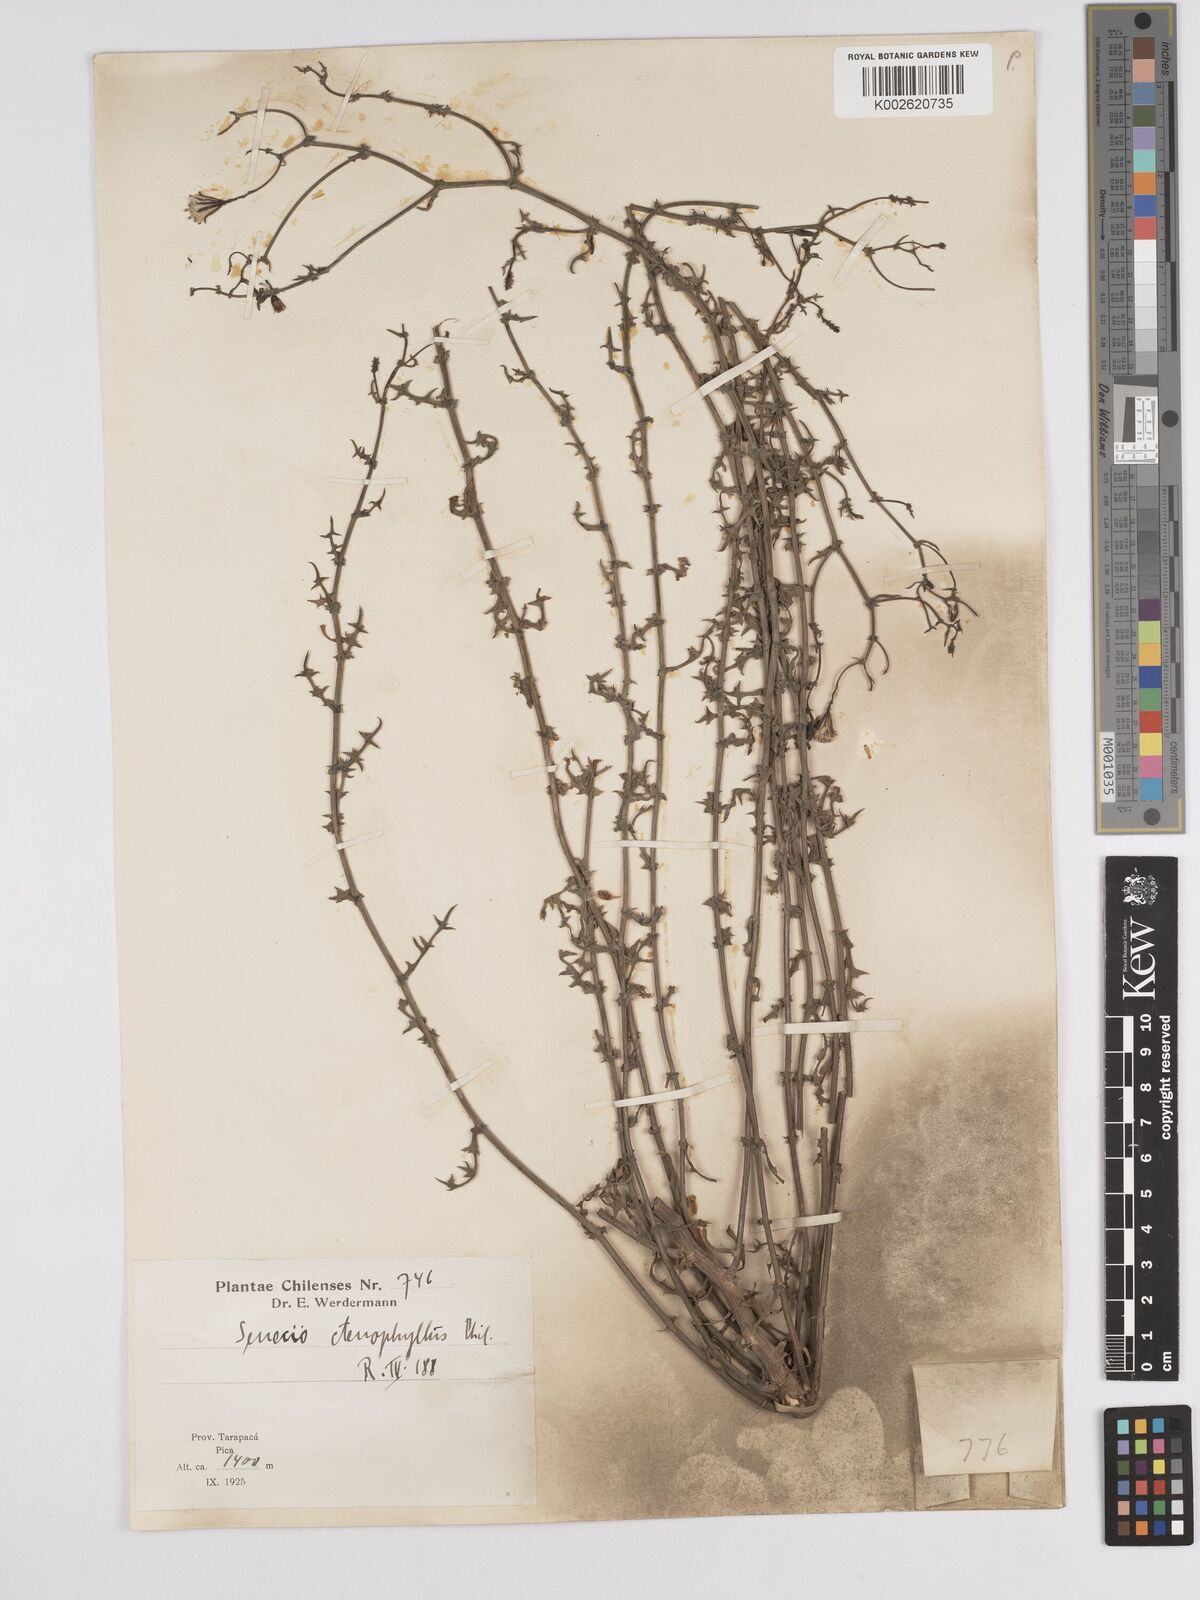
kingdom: Plantae
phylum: Tracheophyta
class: Magnoliopsida
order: Asterales
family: Asteraceae
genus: Senecio
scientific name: Senecio ctenophyllus
